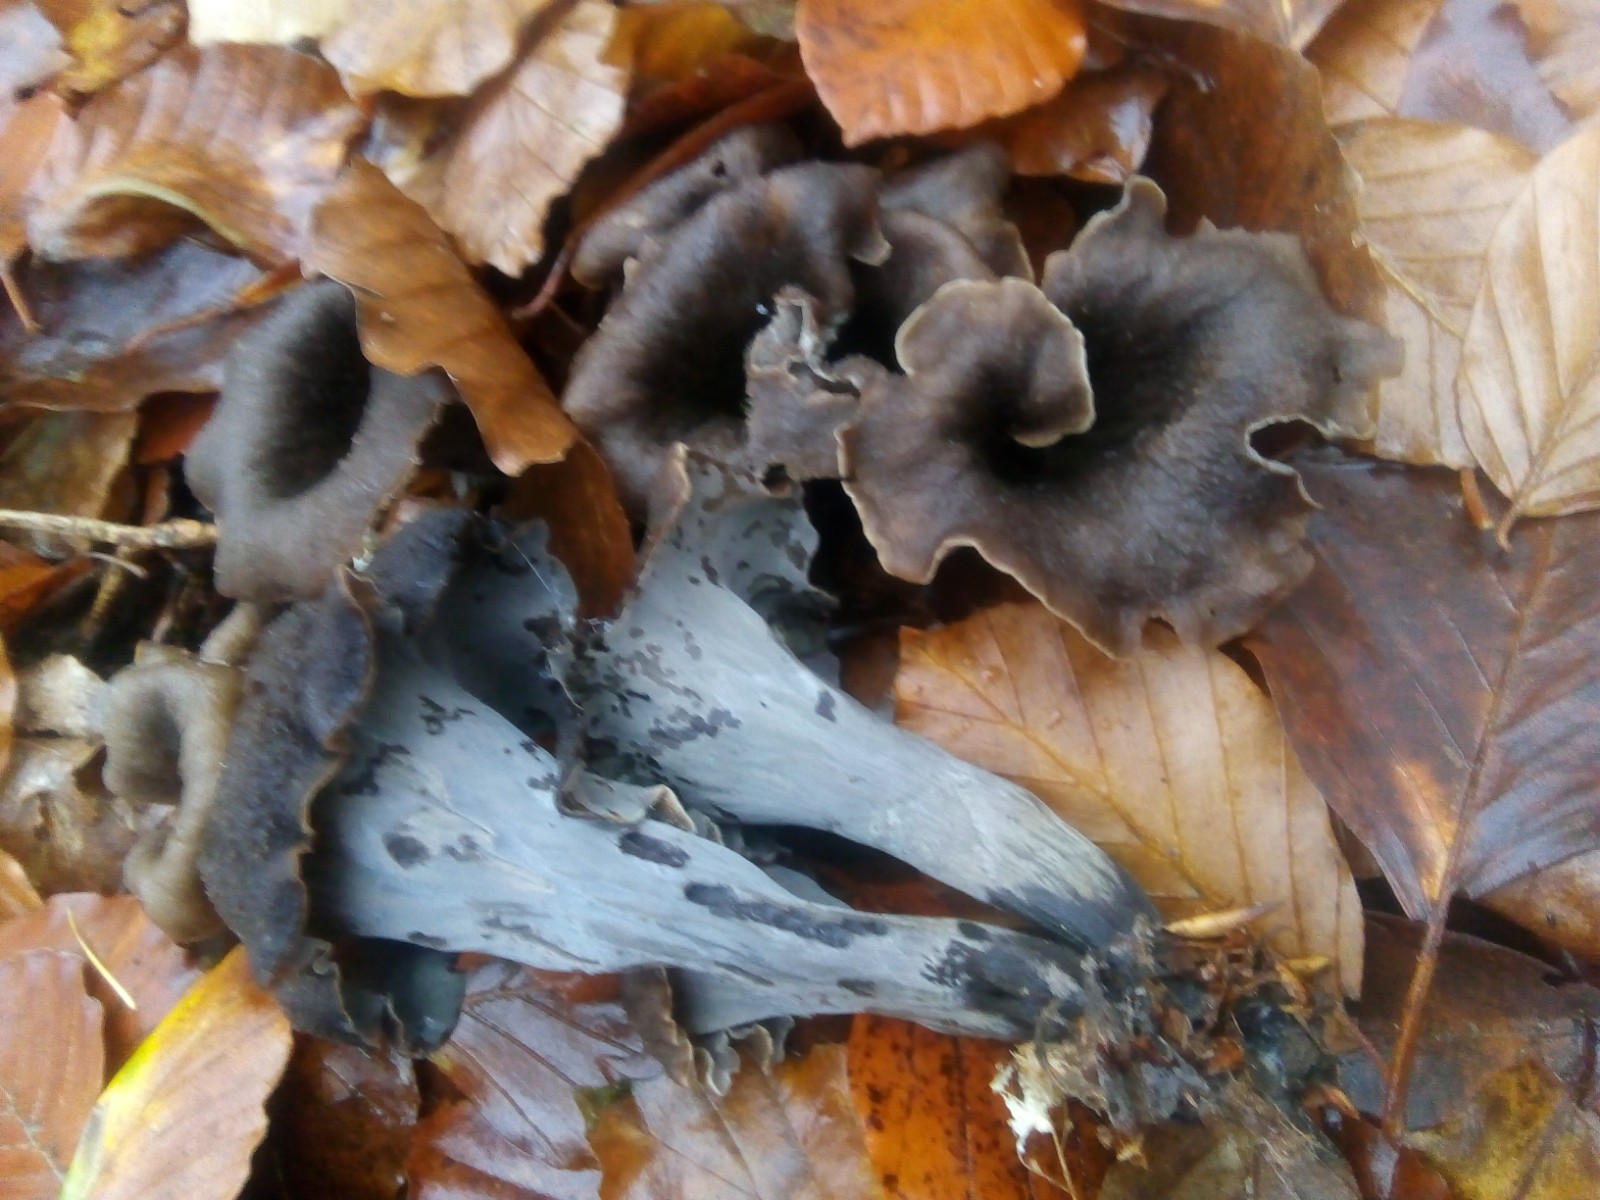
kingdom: Fungi
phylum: Basidiomycota
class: Agaricomycetes
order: Cantharellales
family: Hydnaceae
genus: Craterellus
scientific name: Craterellus cornucopioides
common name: trompetsvamp
